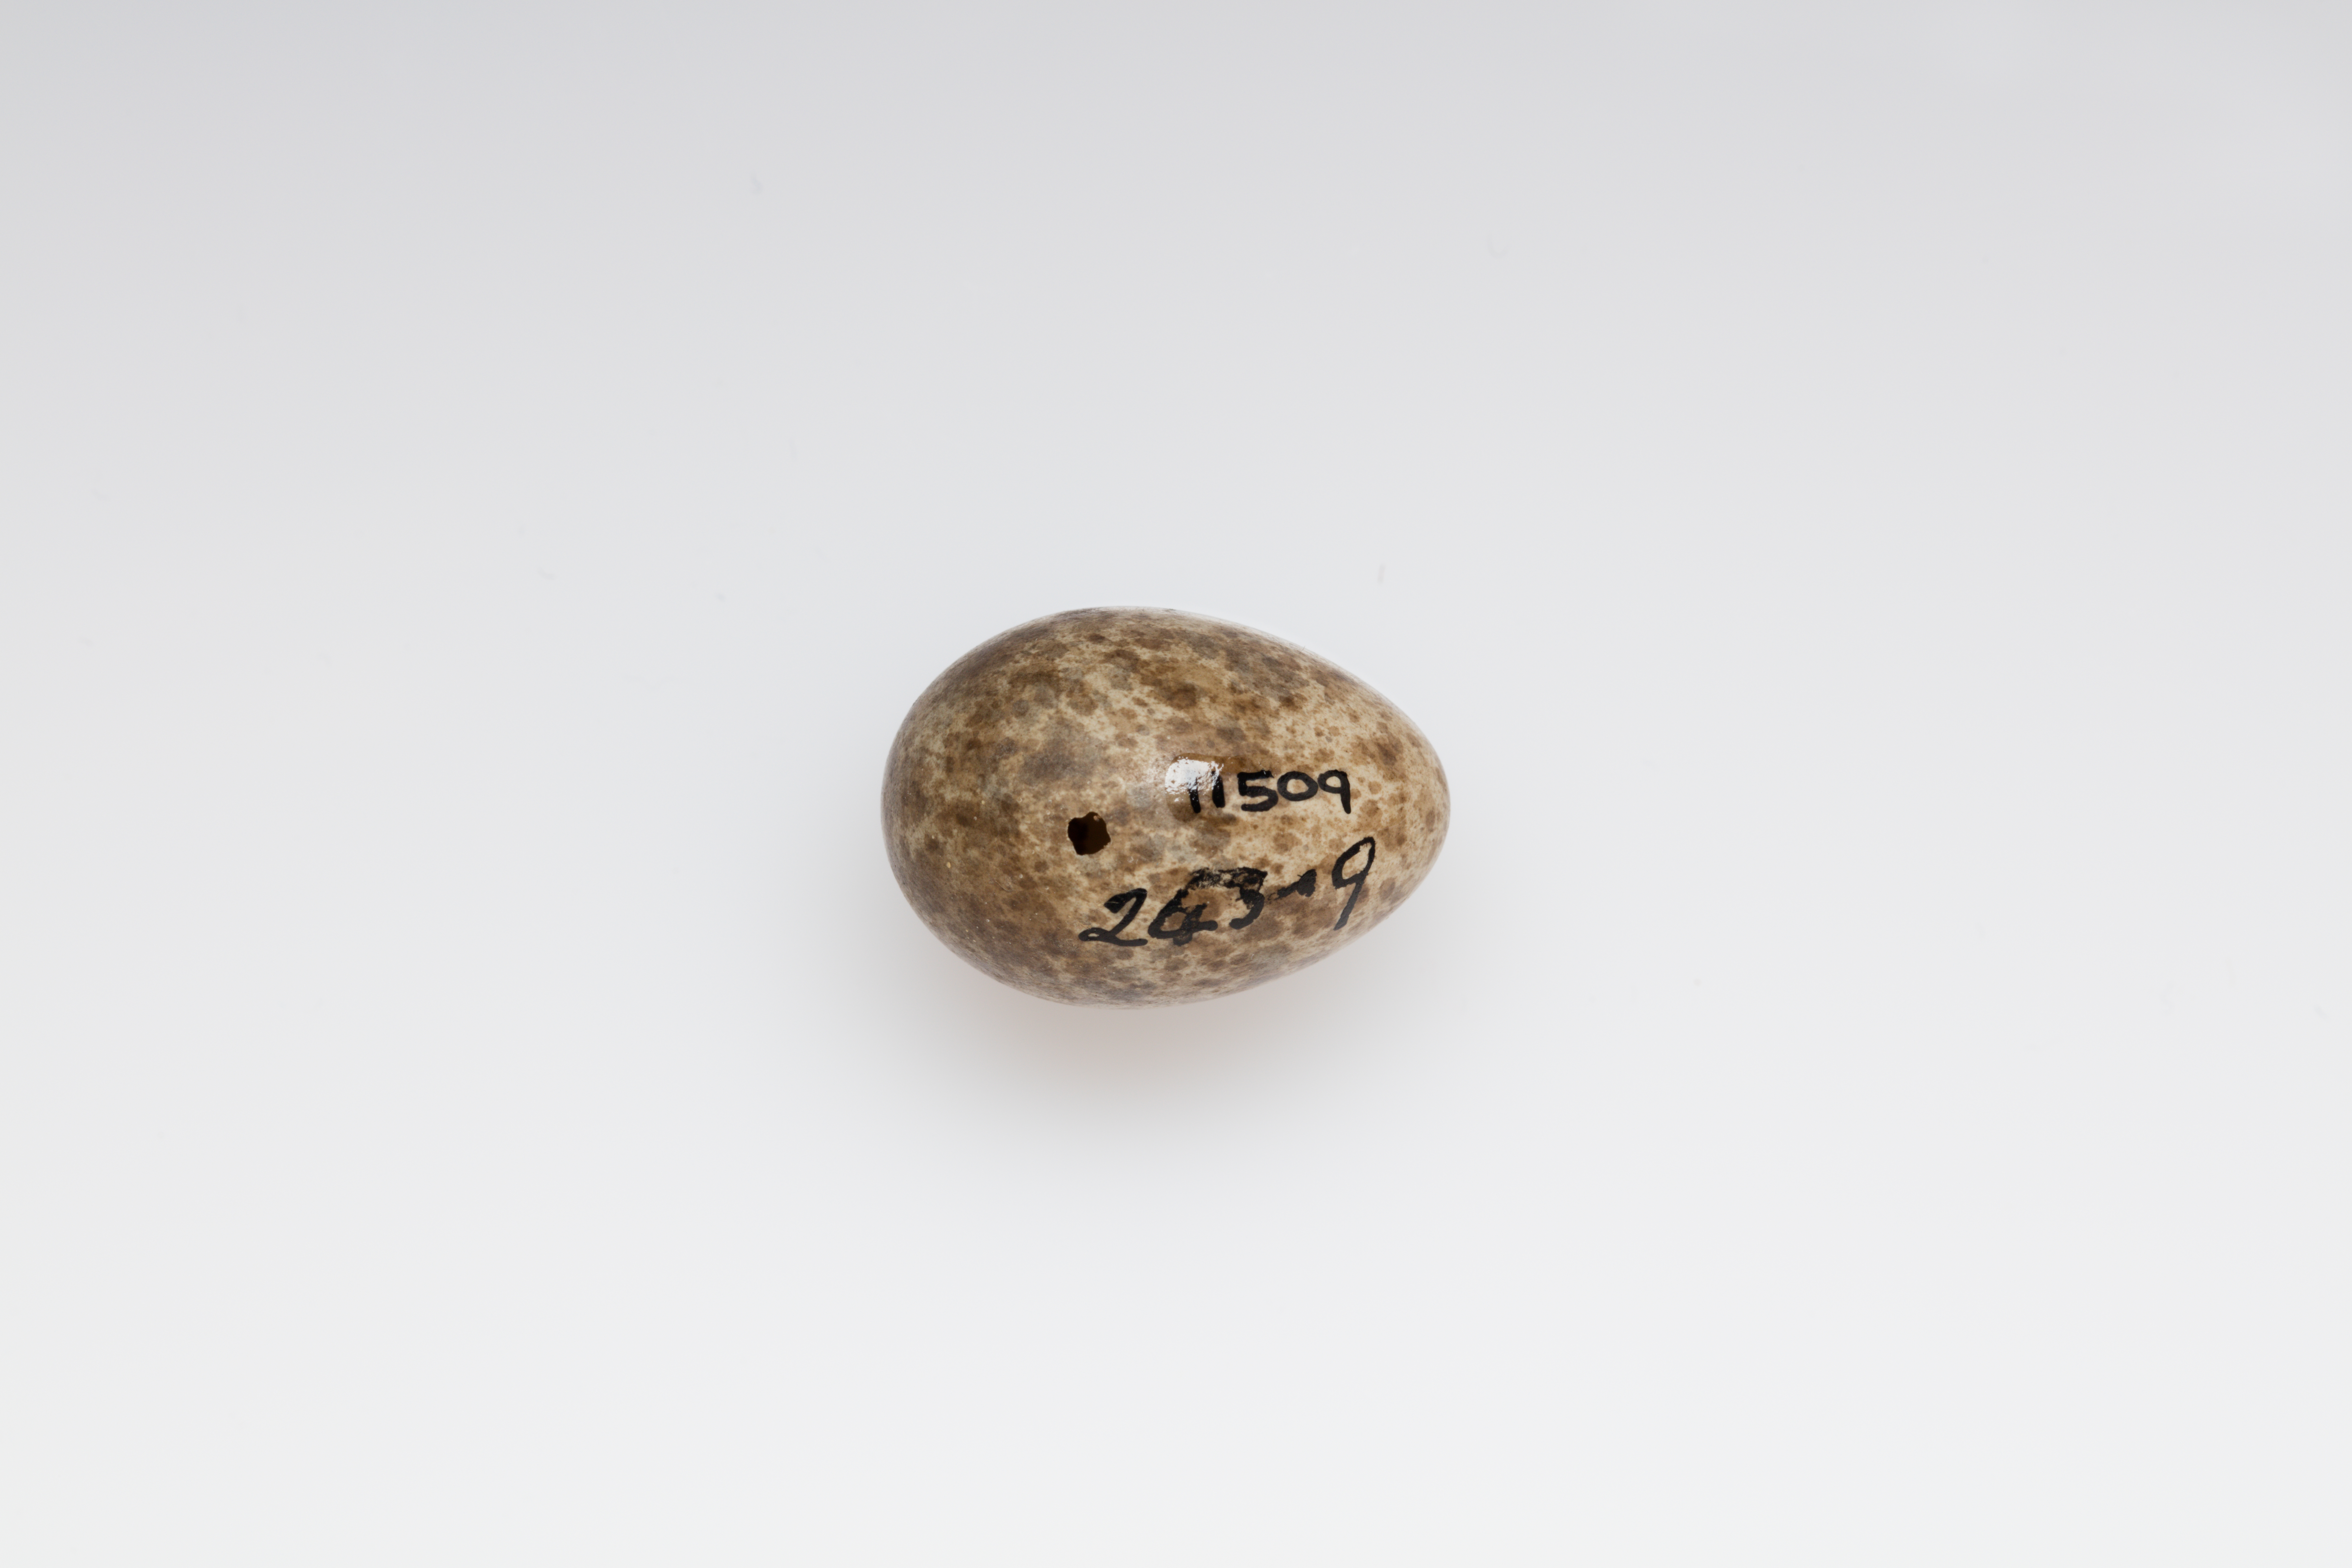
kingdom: Animalia
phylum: Chordata
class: Aves
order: Passeriformes
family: Alaudidae
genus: Alauda
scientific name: Alauda arvensis
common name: Eurasian skylark
